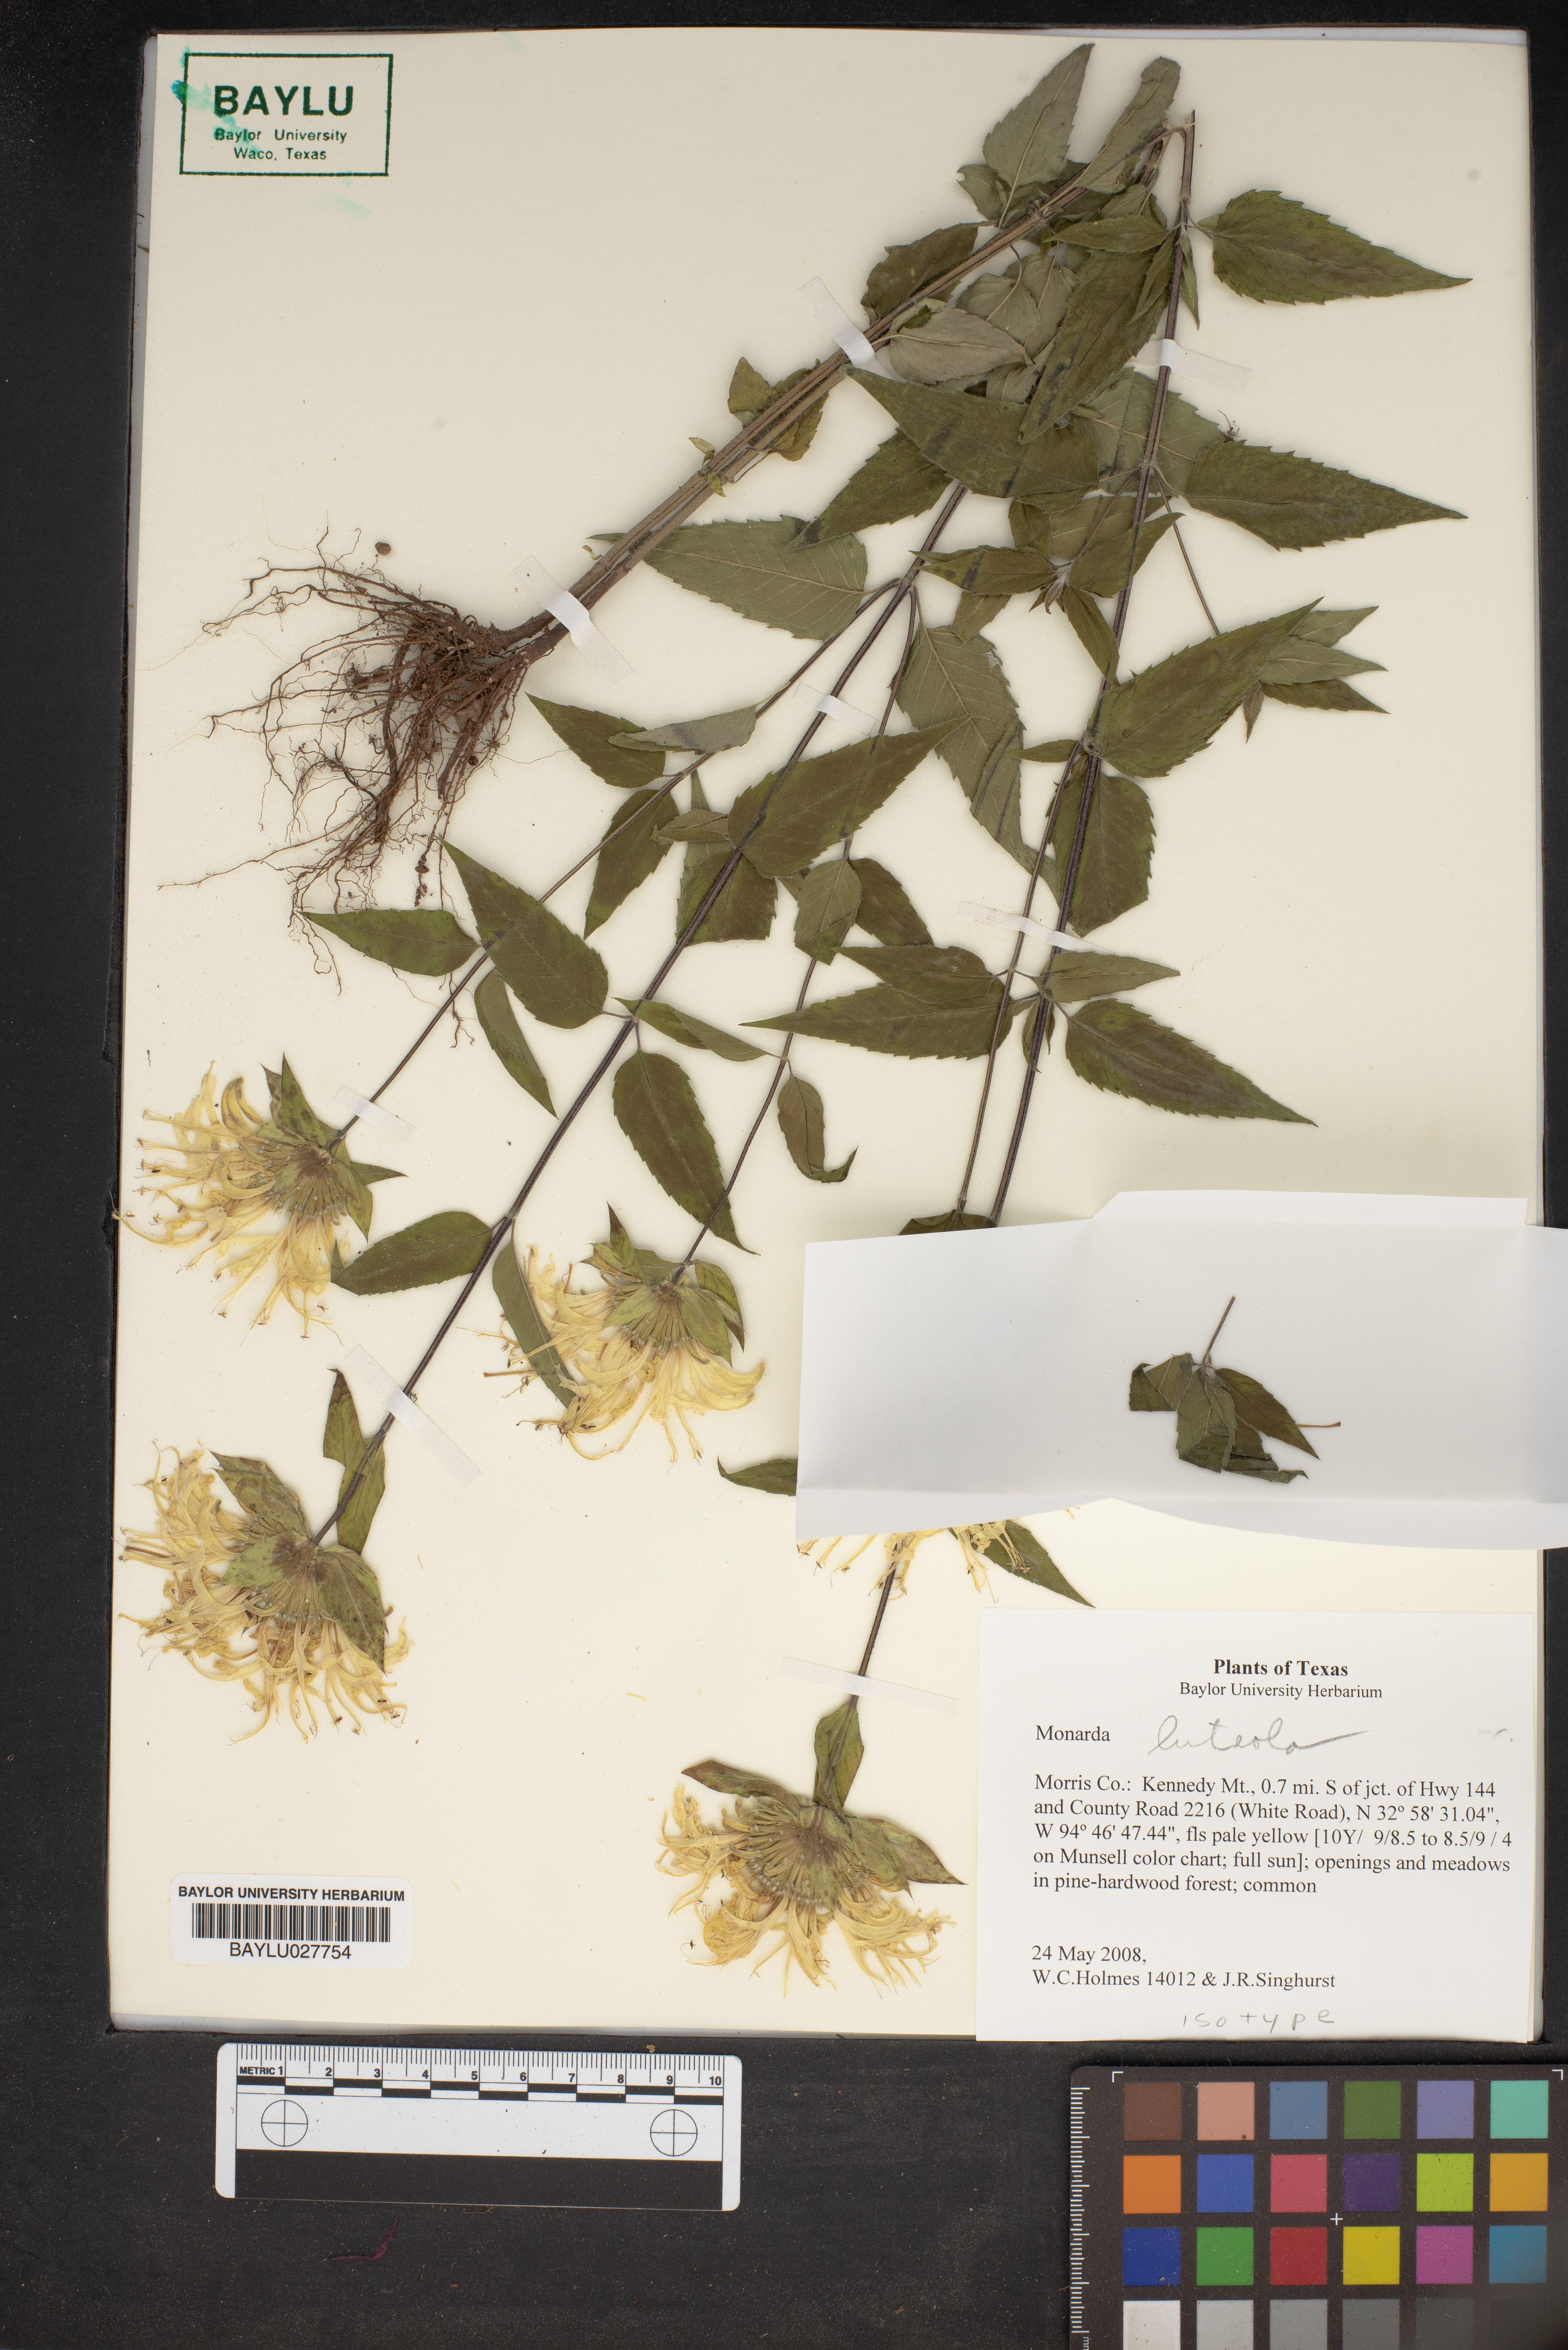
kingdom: Plantae
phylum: Tracheophyta
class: Magnoliopsida
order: Lamiales
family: Lamiaceae
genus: Monarda
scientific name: Monarda luteola
